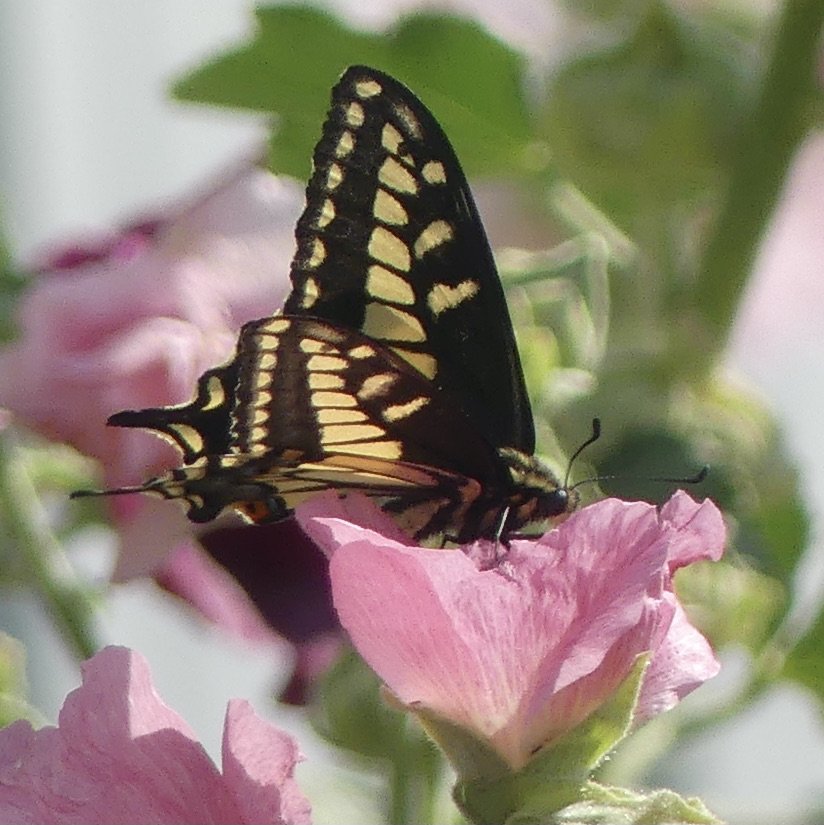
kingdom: Animalia
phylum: Arthropoda
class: Insecta
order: Lepidoptera
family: Papilionidae
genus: Papilio
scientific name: Papilio zelicaon
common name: Anise Swallowtail
